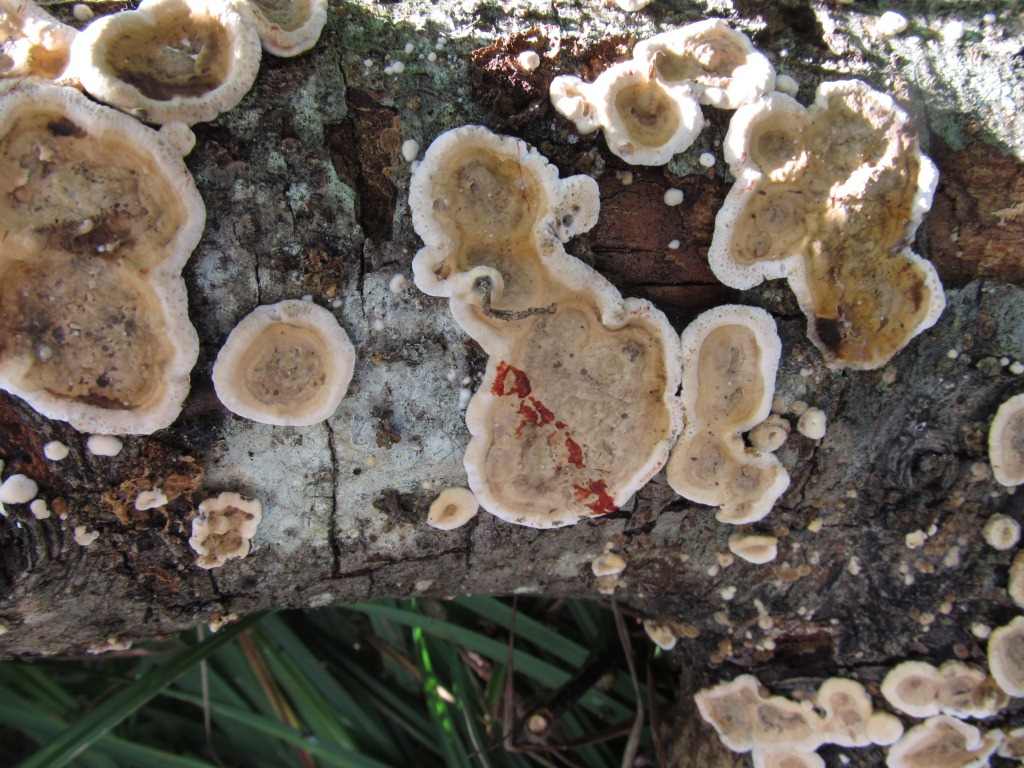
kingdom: Fungi
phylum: Basidiomycota
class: Agaricomycetes
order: Russulales
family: Stereaceae
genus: Stereum
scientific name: Stereum rugosum
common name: rynket lædersvamp
